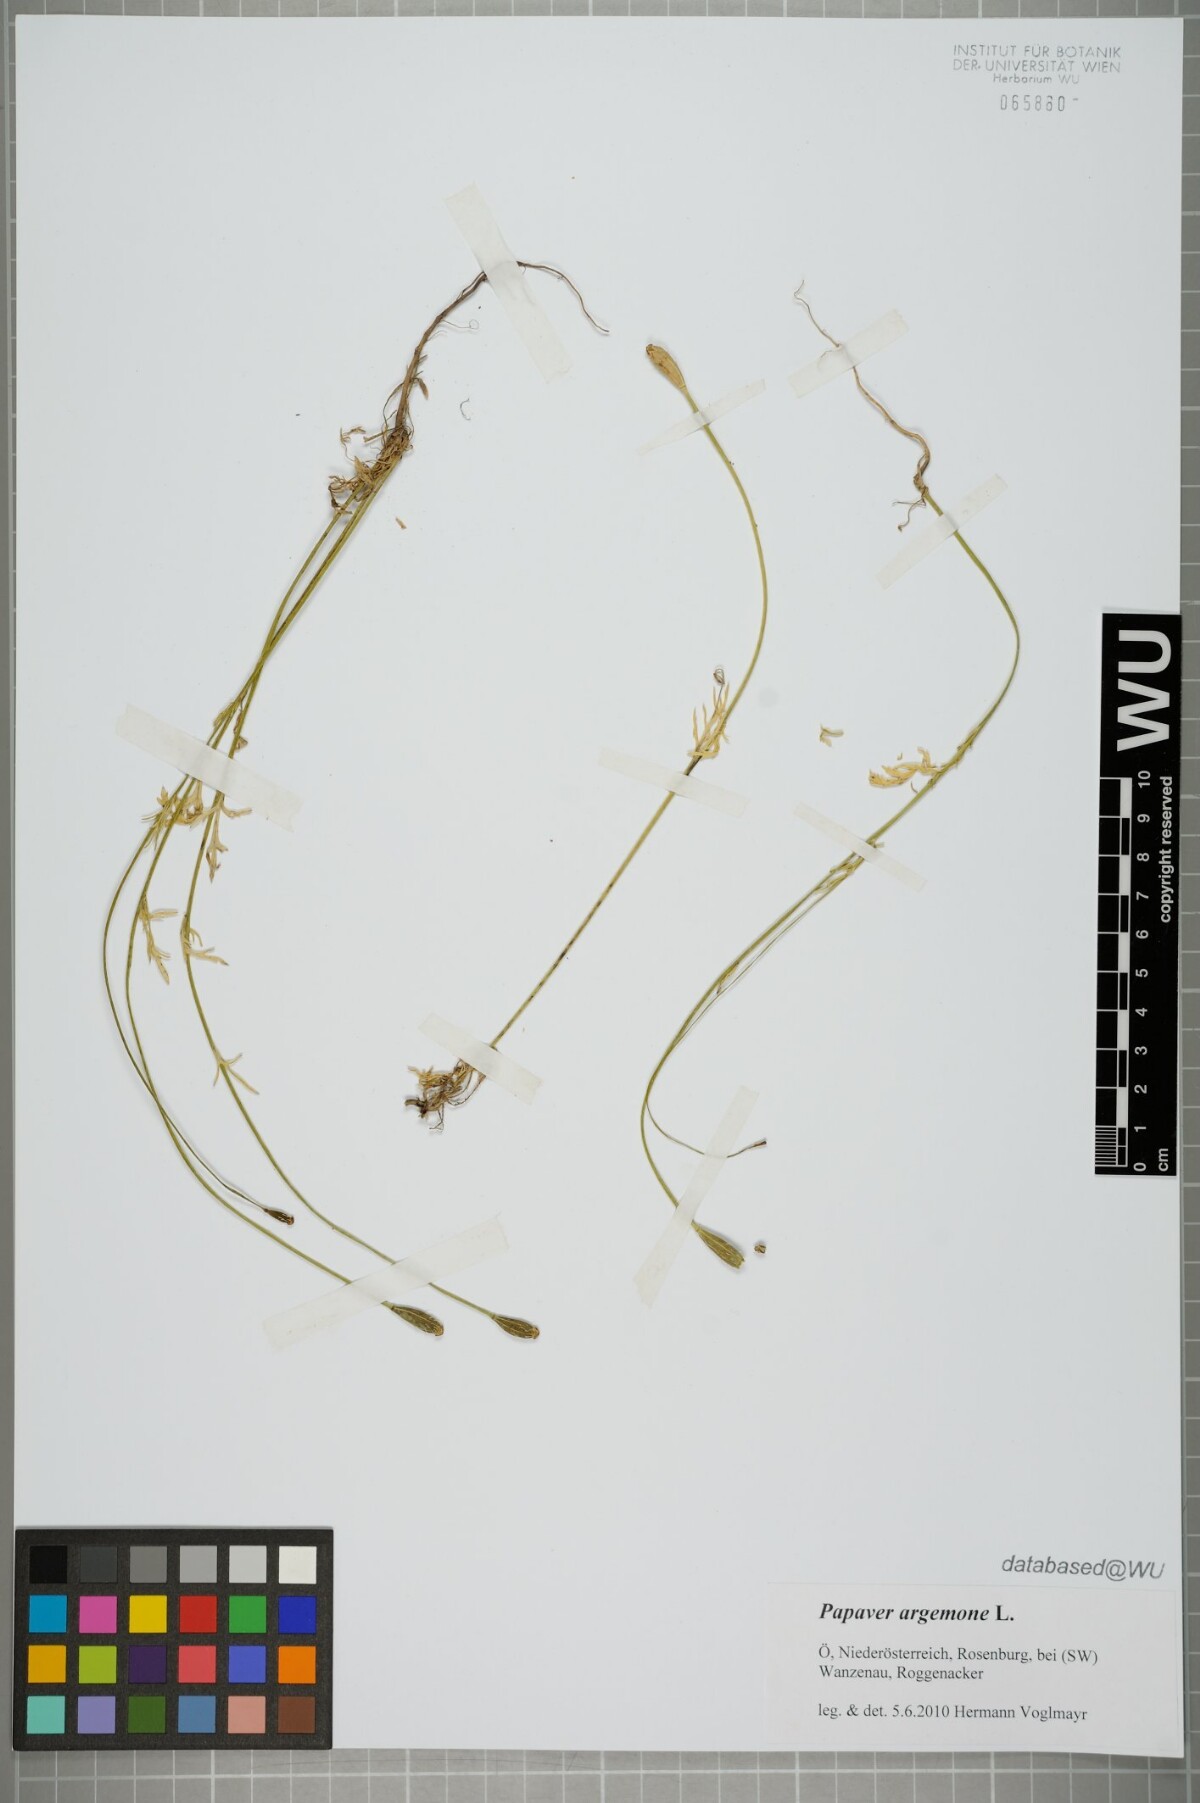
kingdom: Plantae
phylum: Tracheophyta
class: Magnoliopsida
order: Ranunculales
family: Papaveraceae
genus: Roemeria
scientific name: Roemeria argemone
